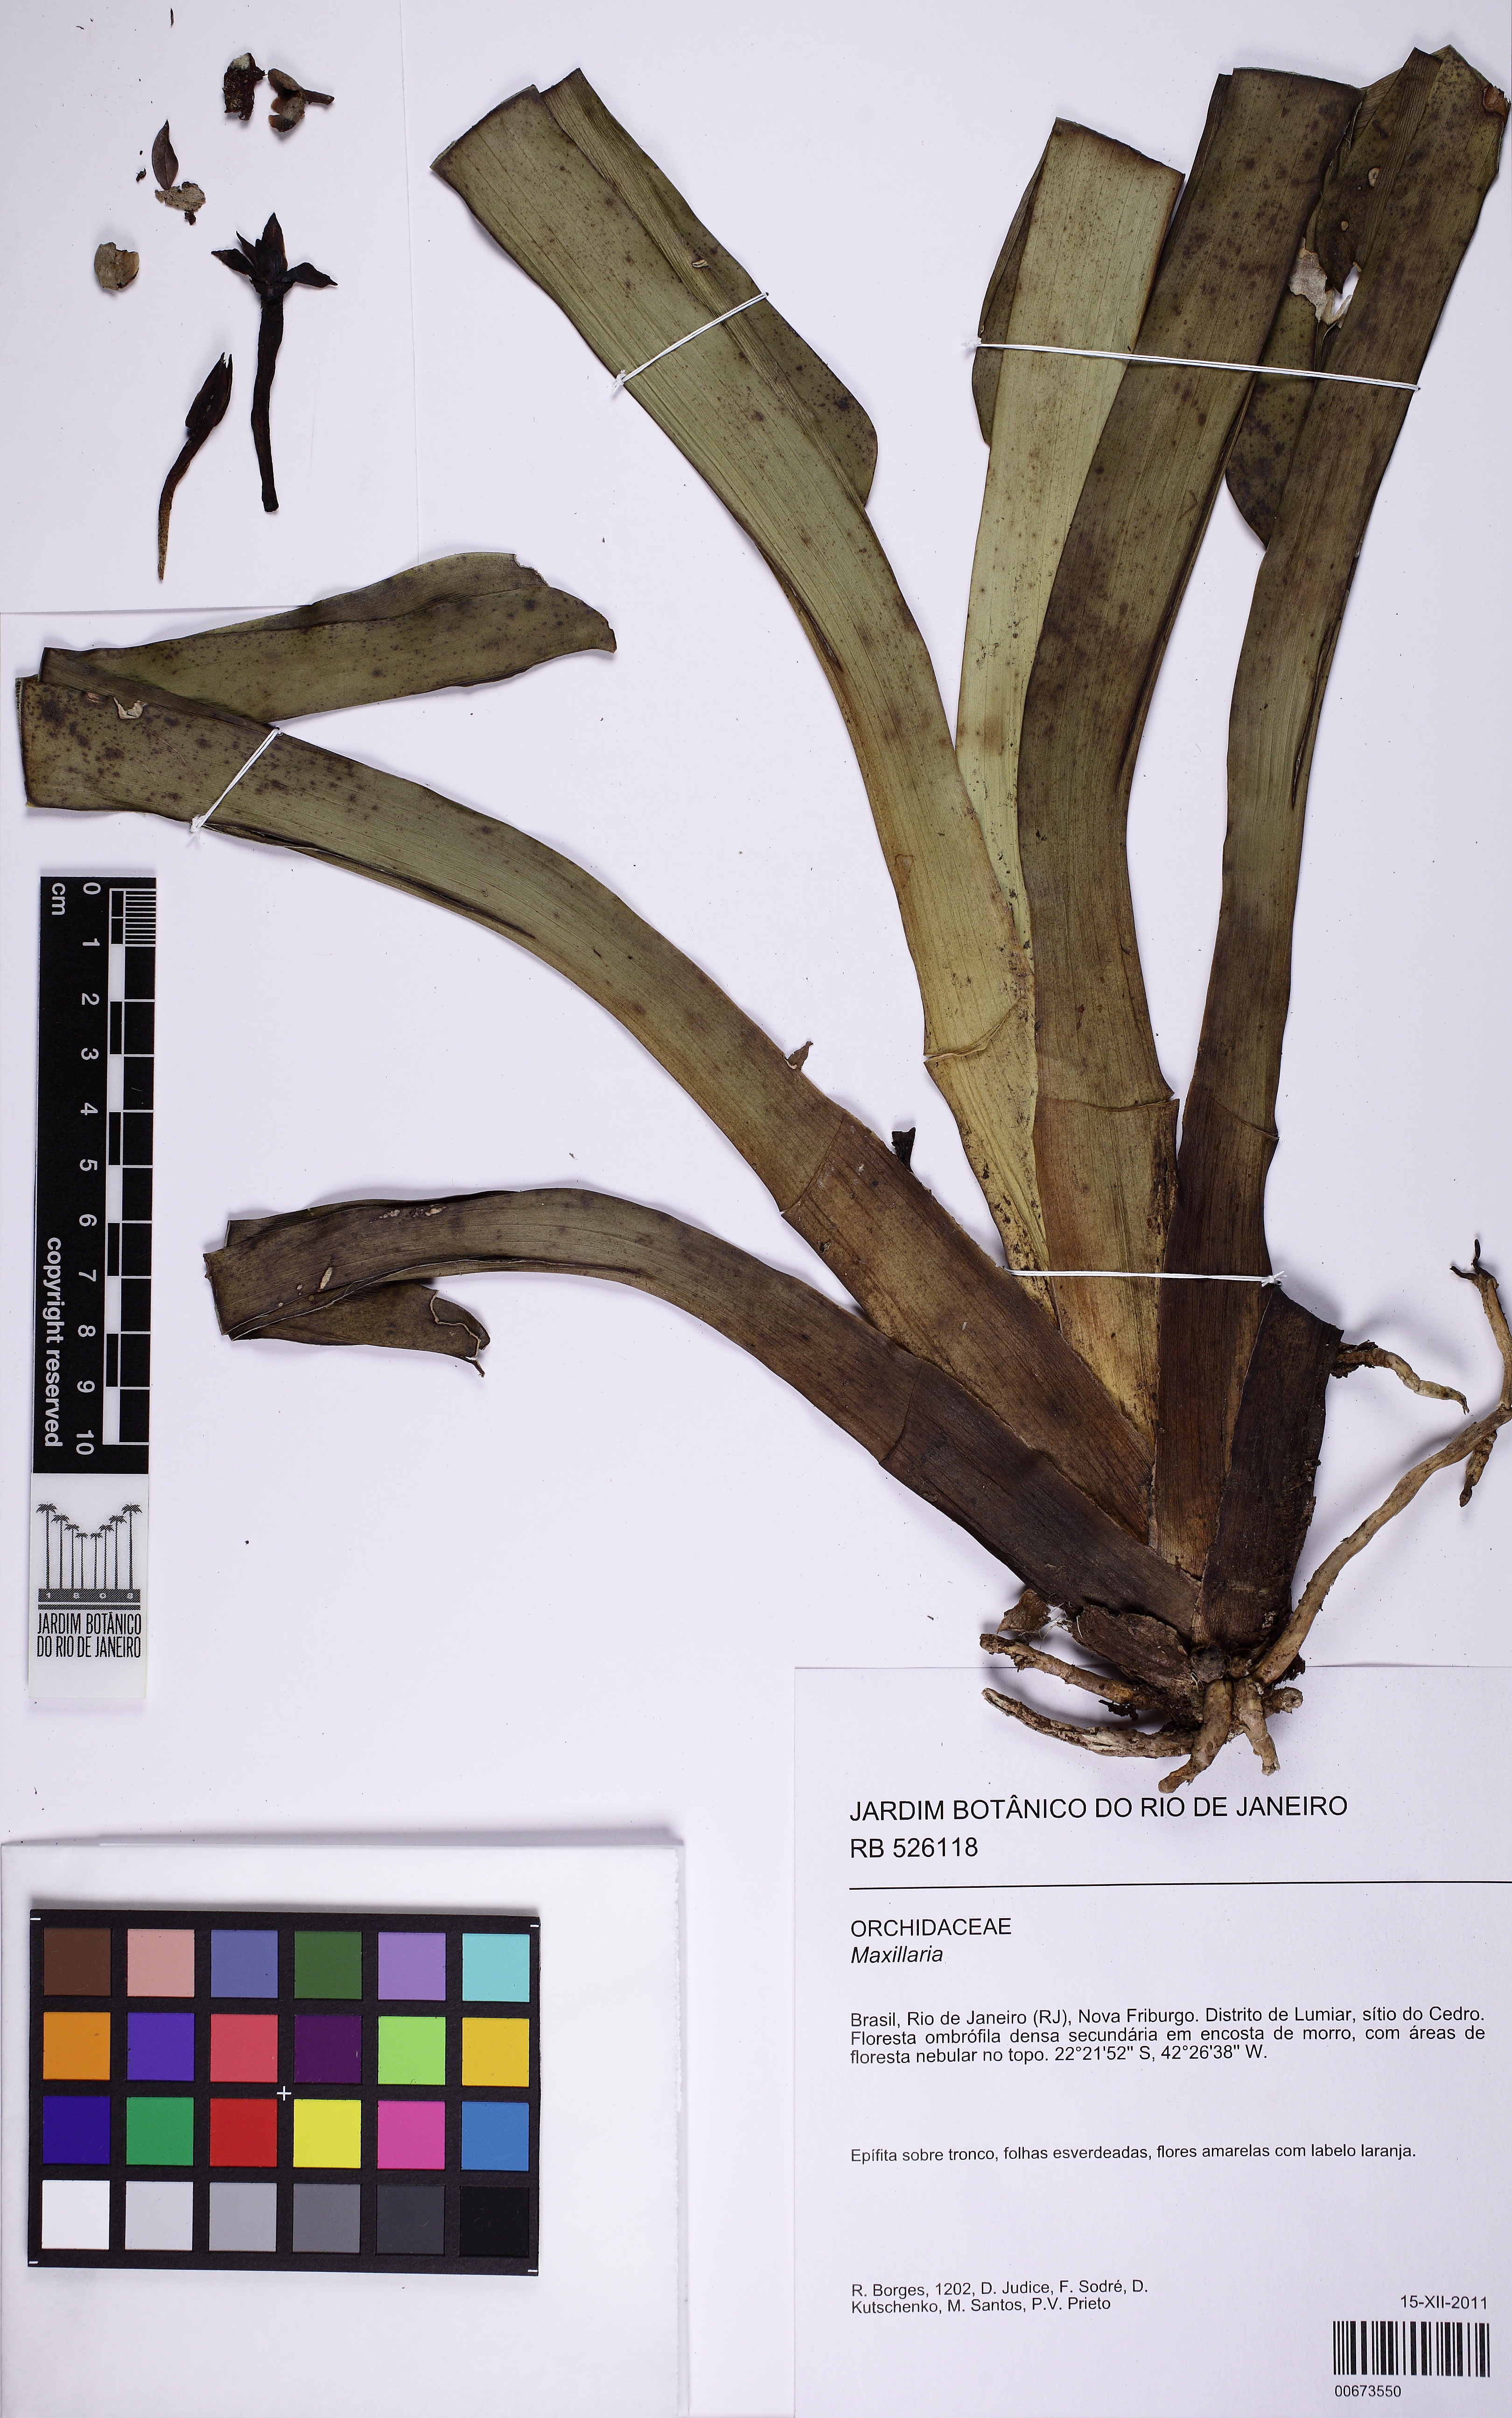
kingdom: Plantae
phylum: Tracheophyta
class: Liliopsida
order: Asparagales
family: Orchidaceae
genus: Maxillaria
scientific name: Maxillaria
